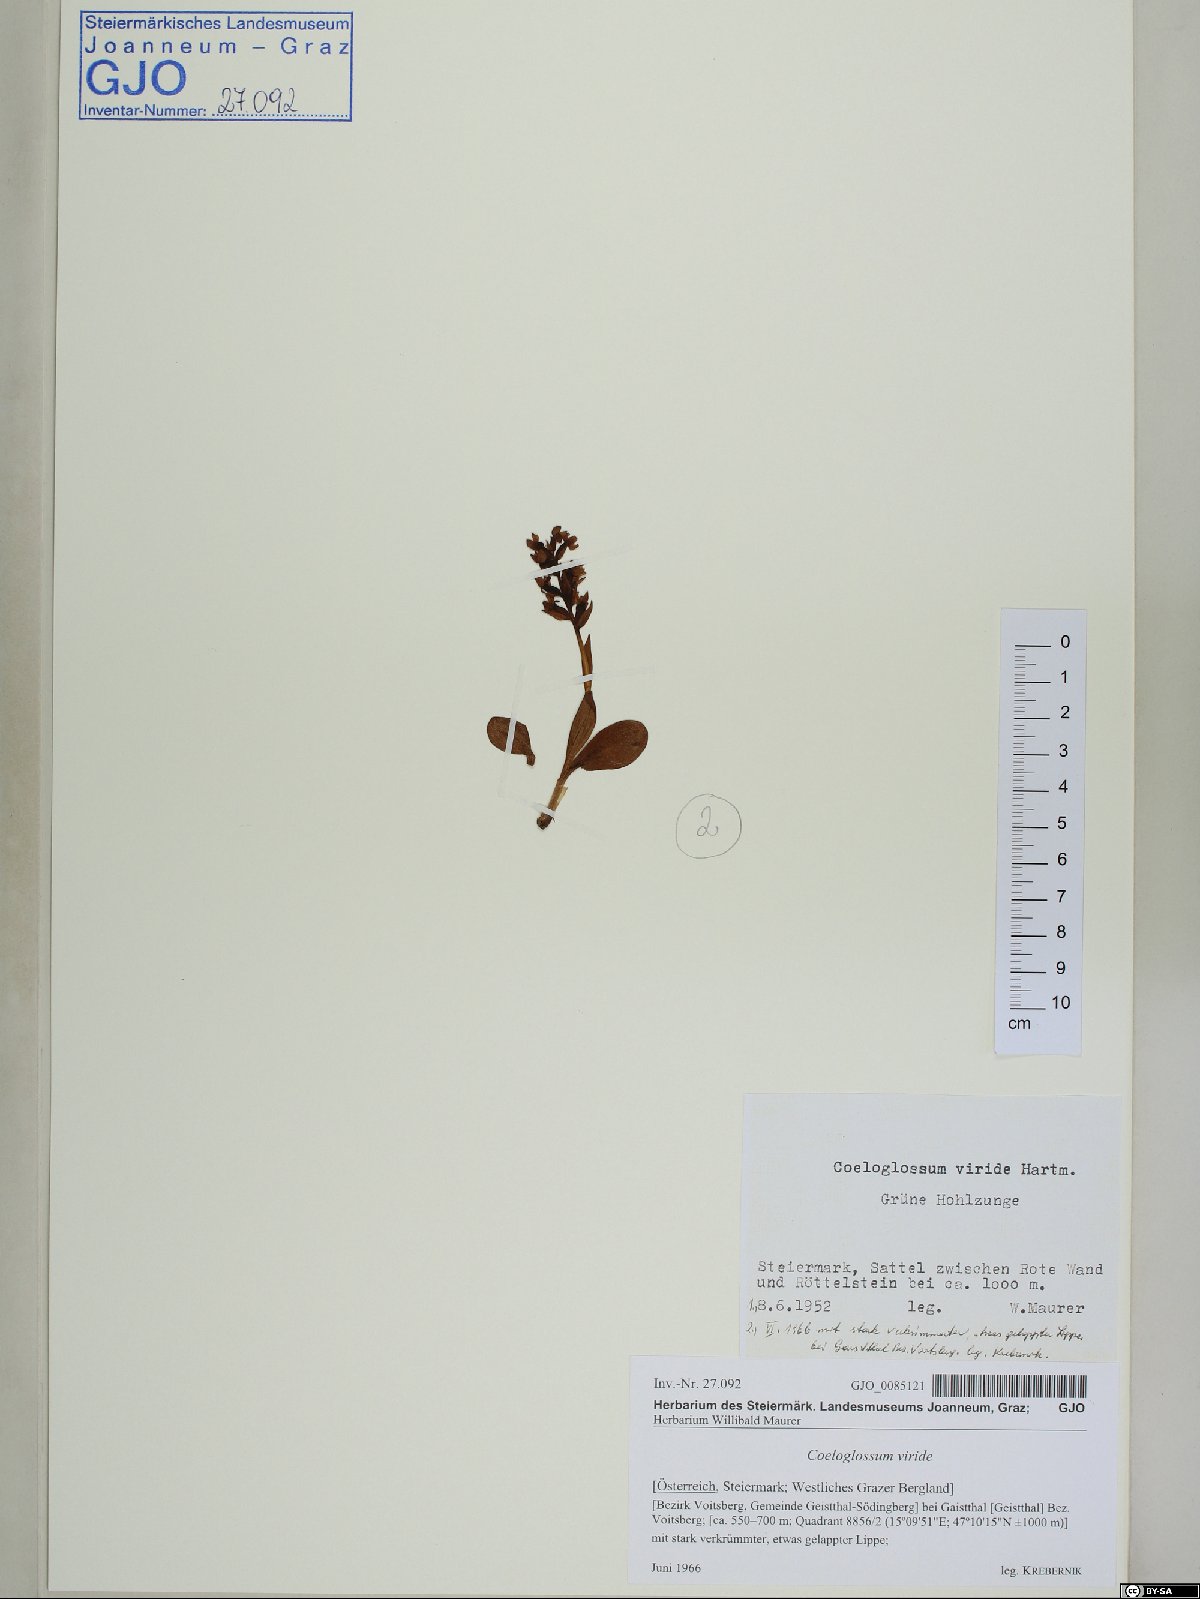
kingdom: Plantae
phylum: Tracheophyta
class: Liliopsida
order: Asparagales
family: Orchidaceae
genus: Dactylorhiza
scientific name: Dactylorhiza viridis
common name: Longbract frog orchid
